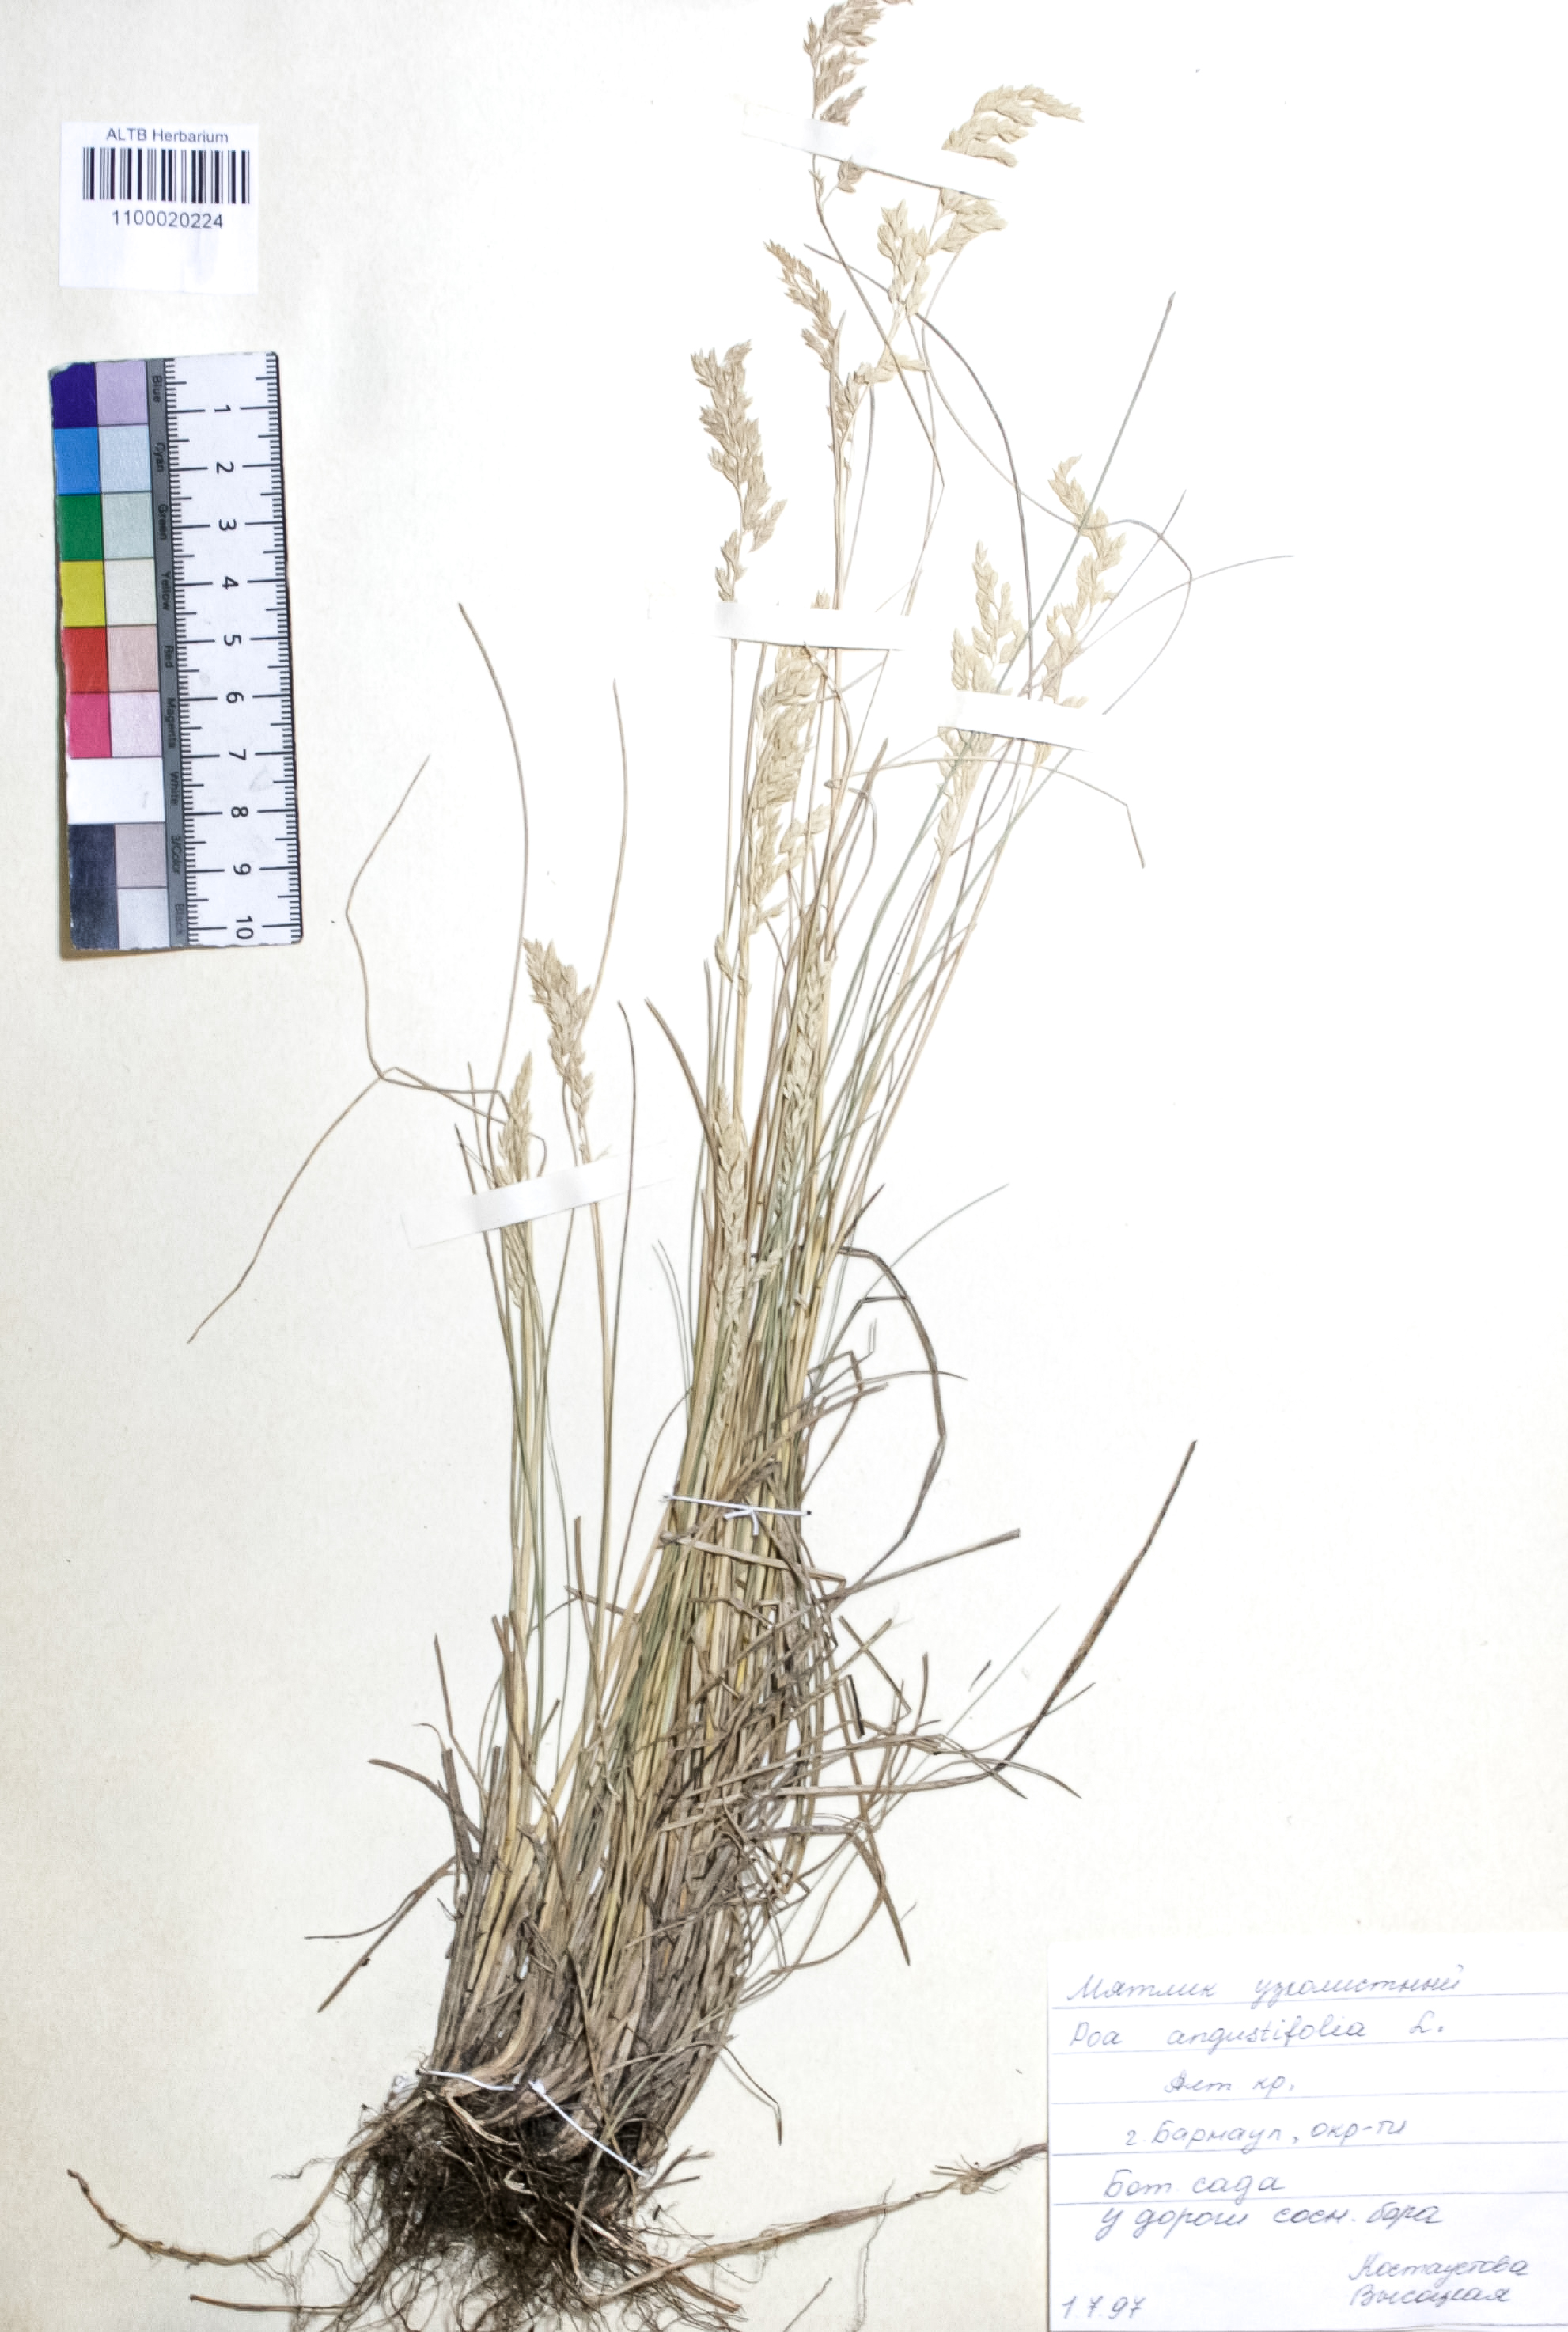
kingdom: Plantae
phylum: Tracheophyta
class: Liliopsida
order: Poales
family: Poaceae
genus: Poa
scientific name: Poa angustifolia
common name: Narrow-leaved meadow-grass
